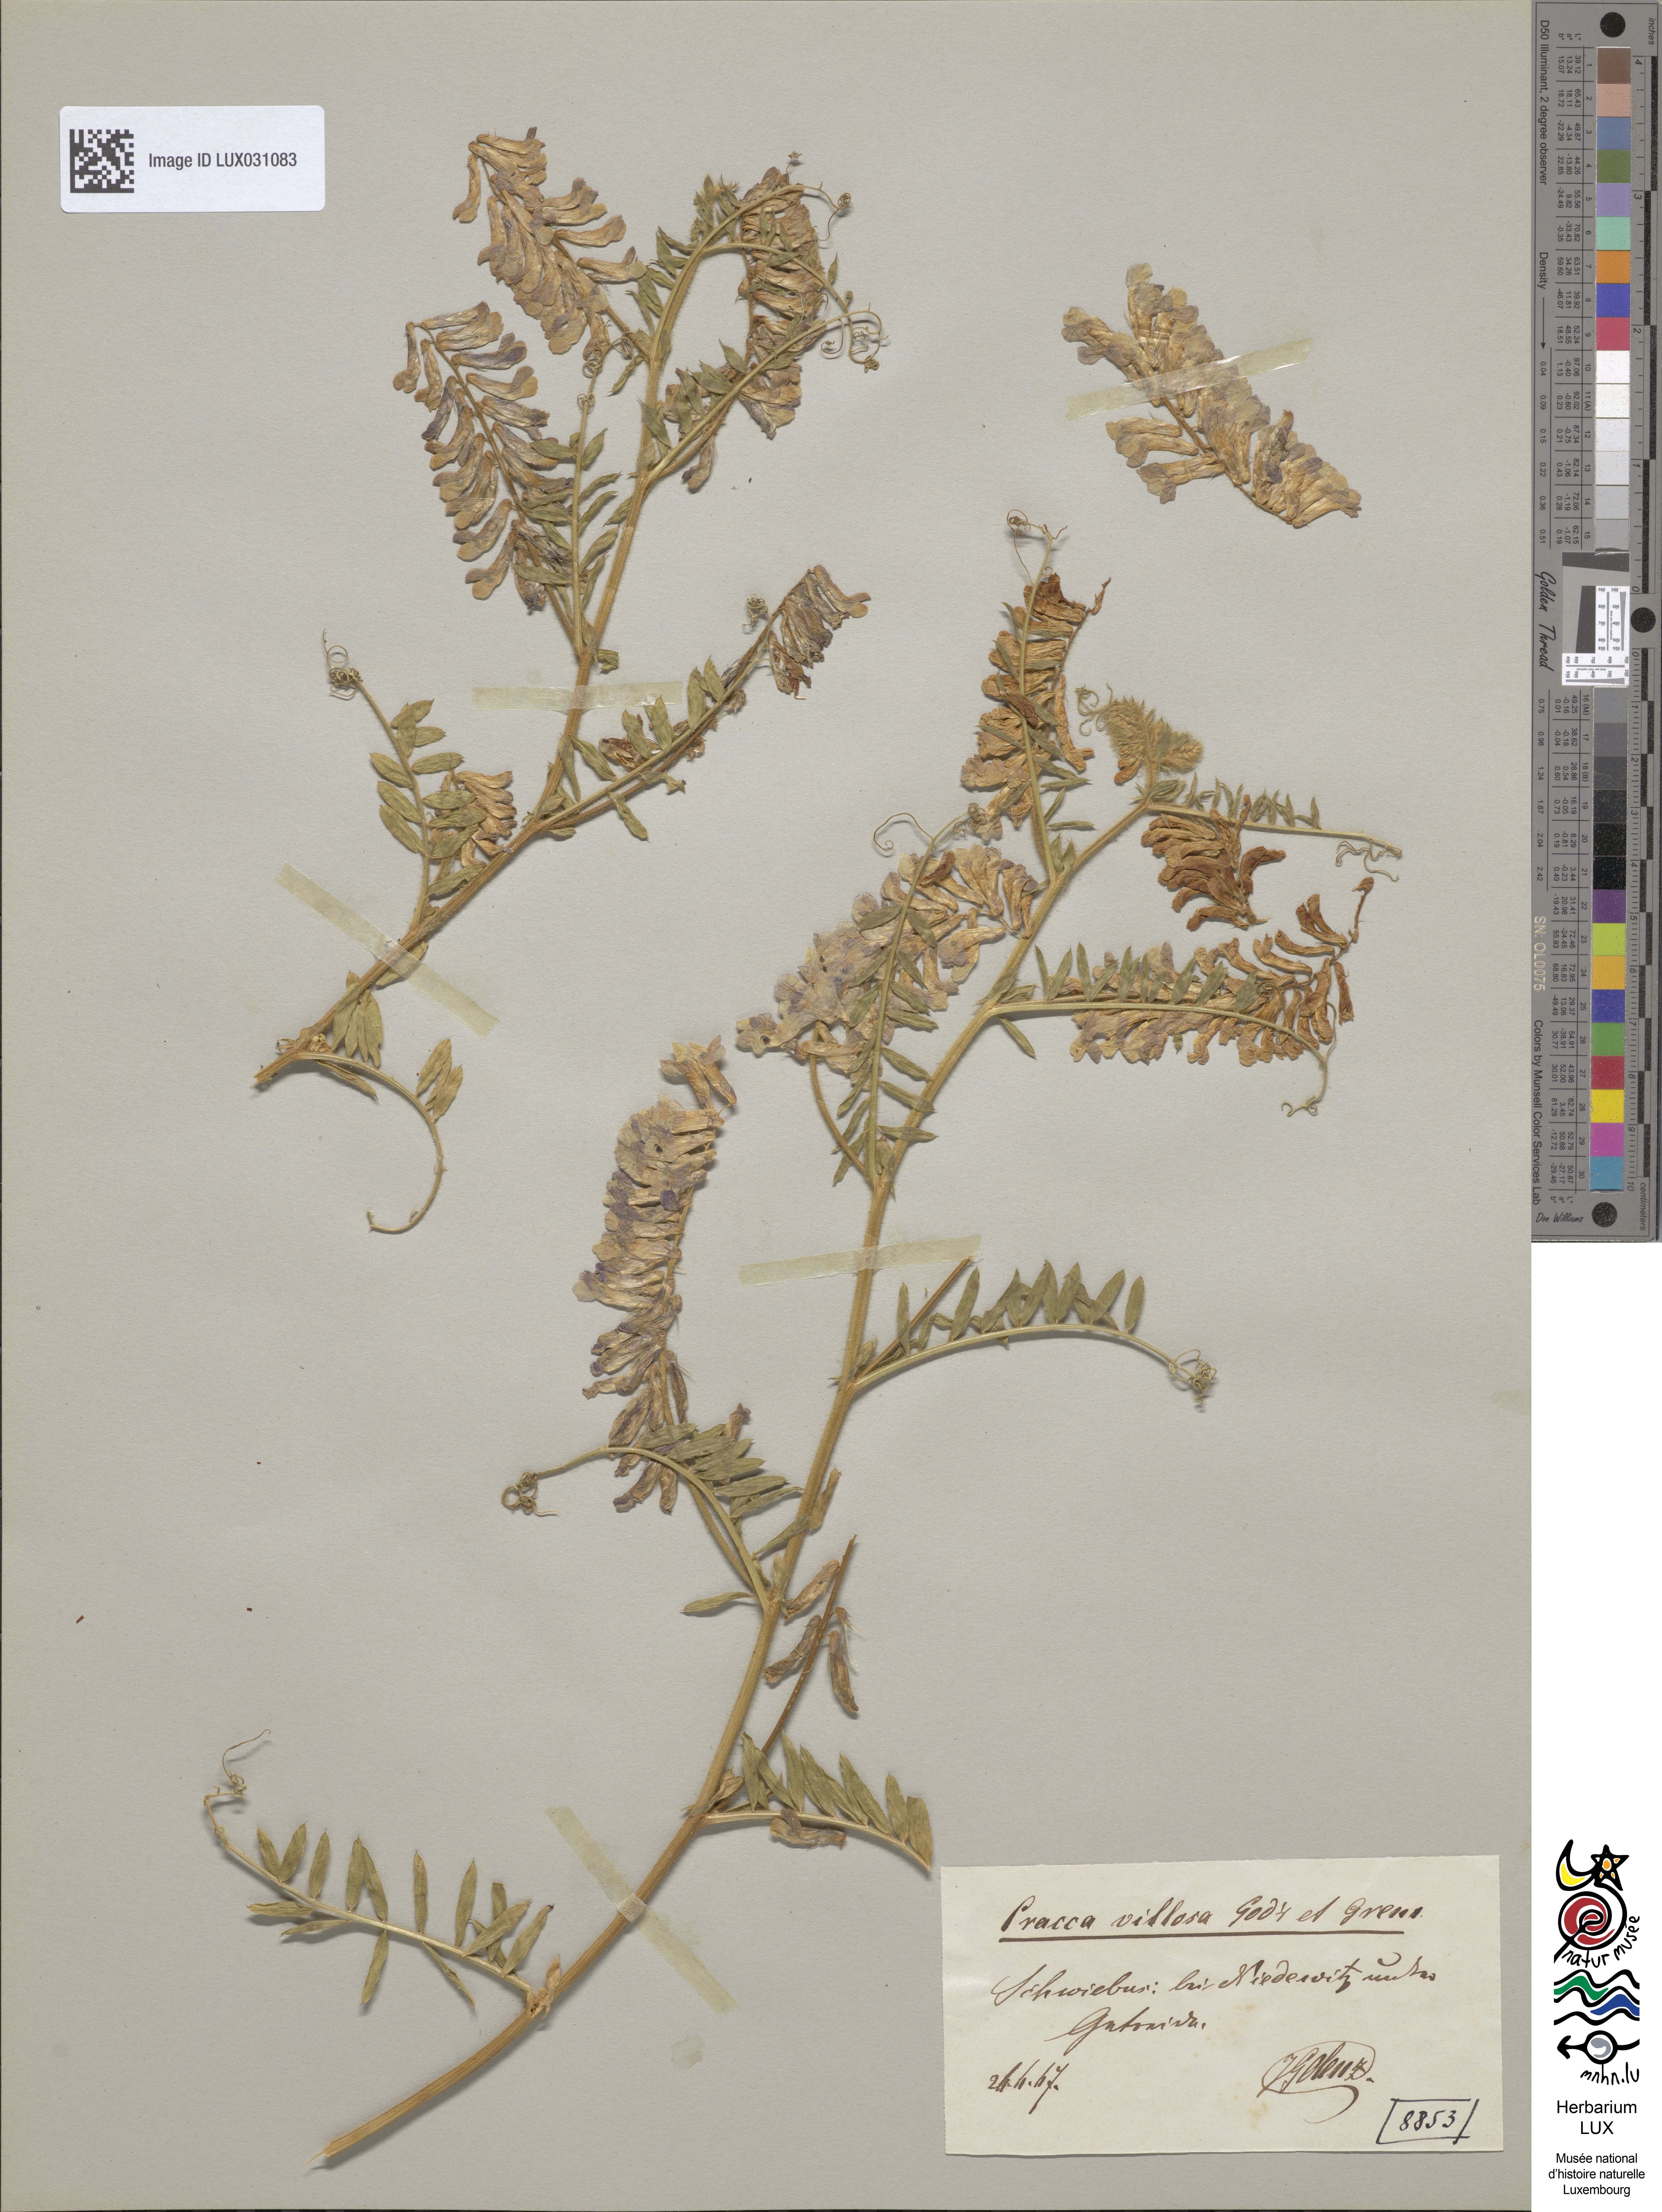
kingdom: Plantae
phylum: Tracheophyta
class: Magnoliopsida
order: Fabales
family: Fabaceae
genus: Vicia
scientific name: Vicia villosa
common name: Fodder vetch
